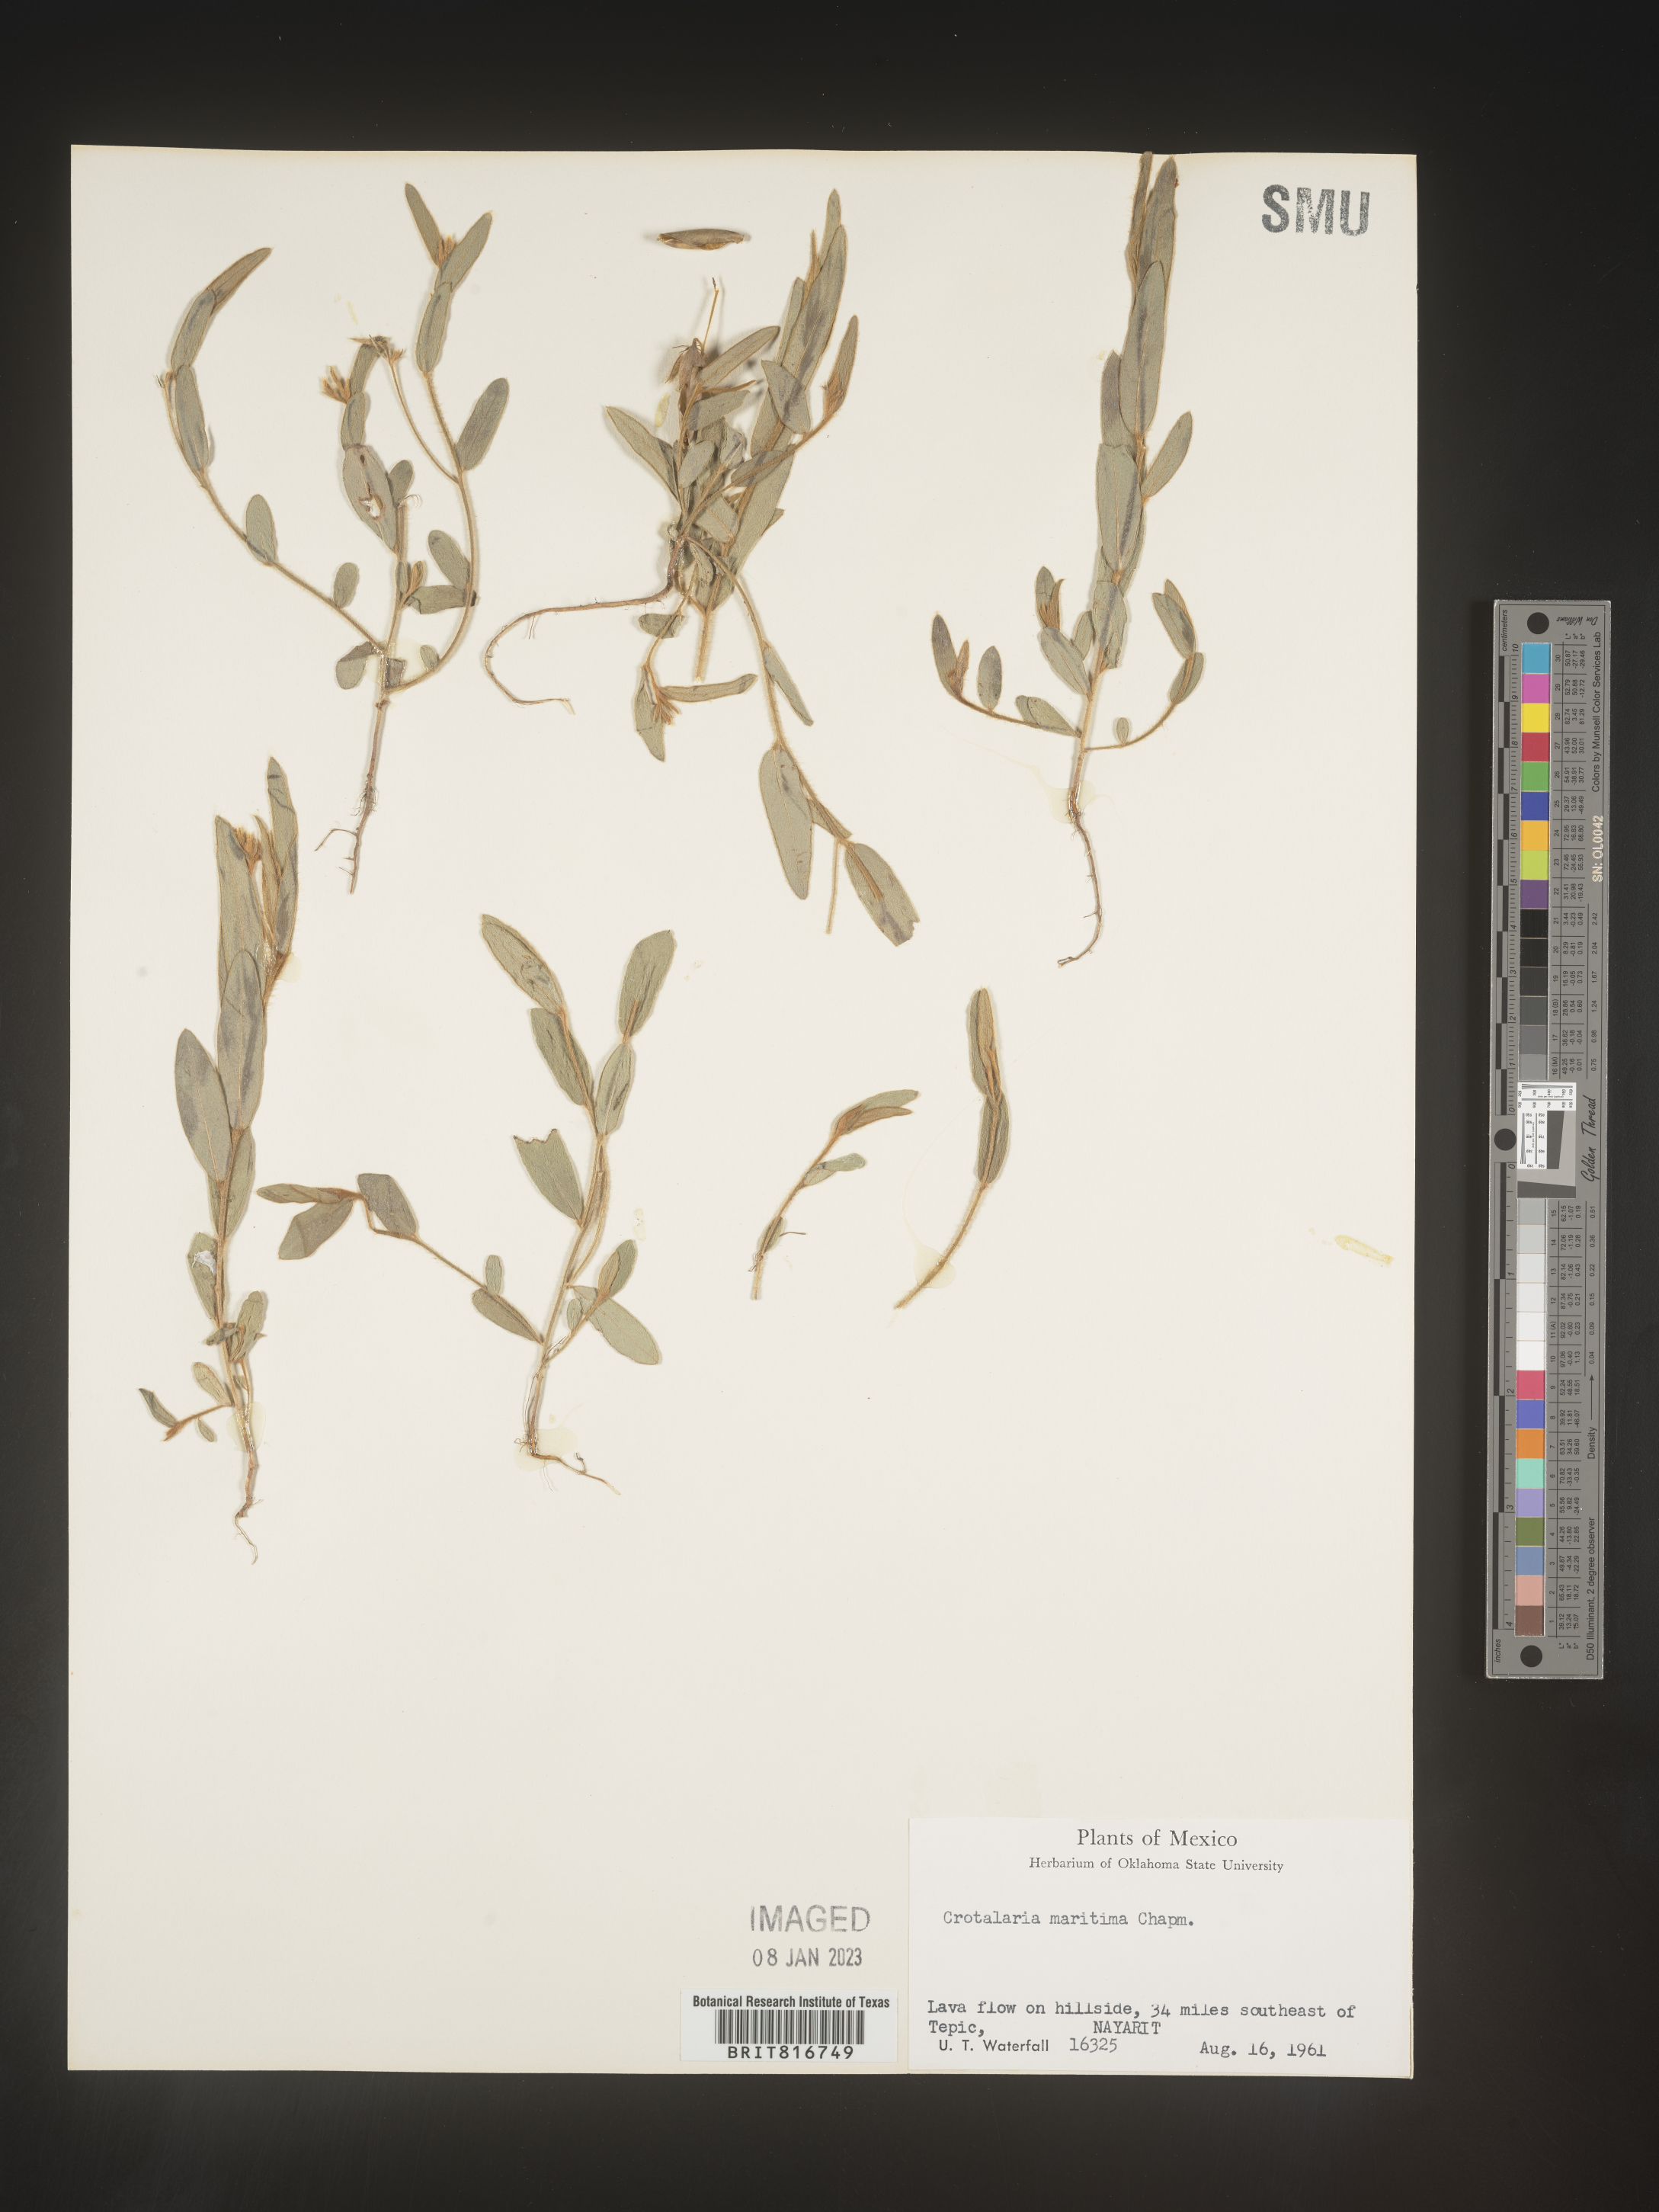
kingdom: Plantae
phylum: Tracheophyta
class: Magnoliopsida
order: Fabales
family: Fabaceae
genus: Crotalaria
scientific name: Crotalaria
